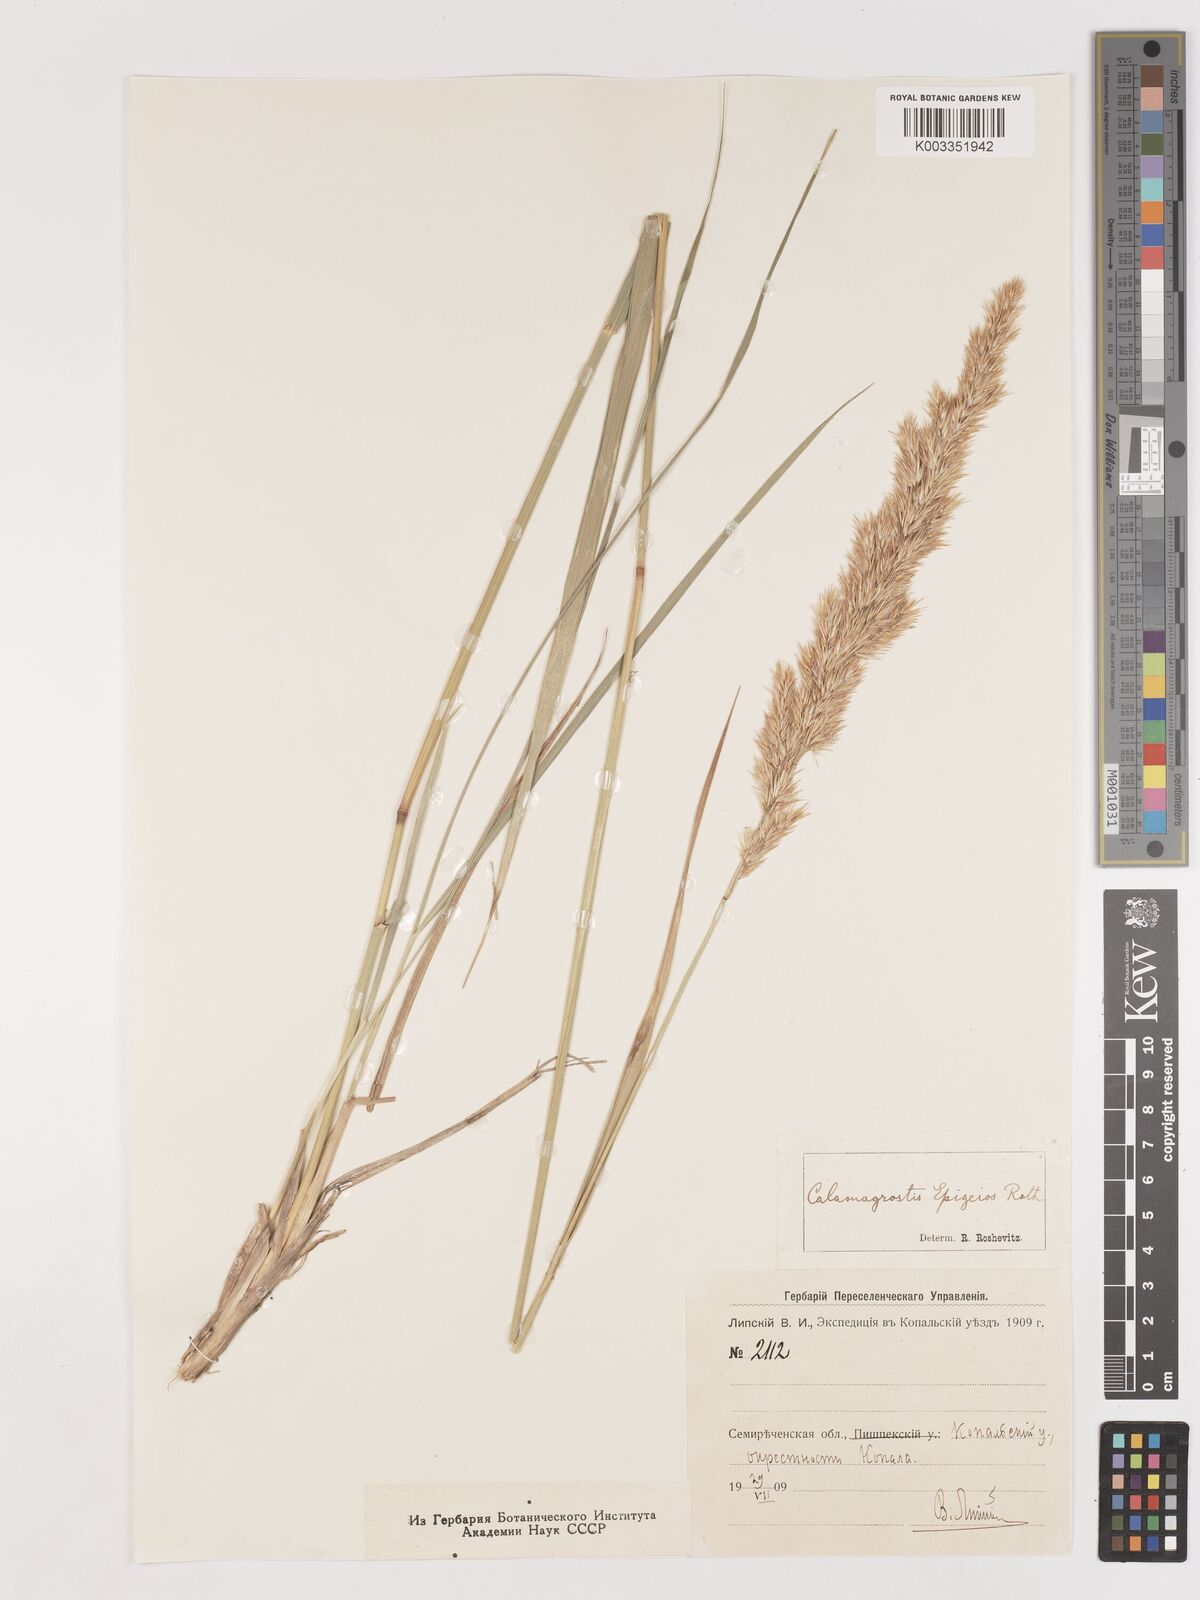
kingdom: Plantae
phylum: Tracheophyta
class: Liliopsida
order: Poales
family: Poaceae
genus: Calamagrostis
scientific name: Calamagrostis epigejos
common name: Wood small-reed
